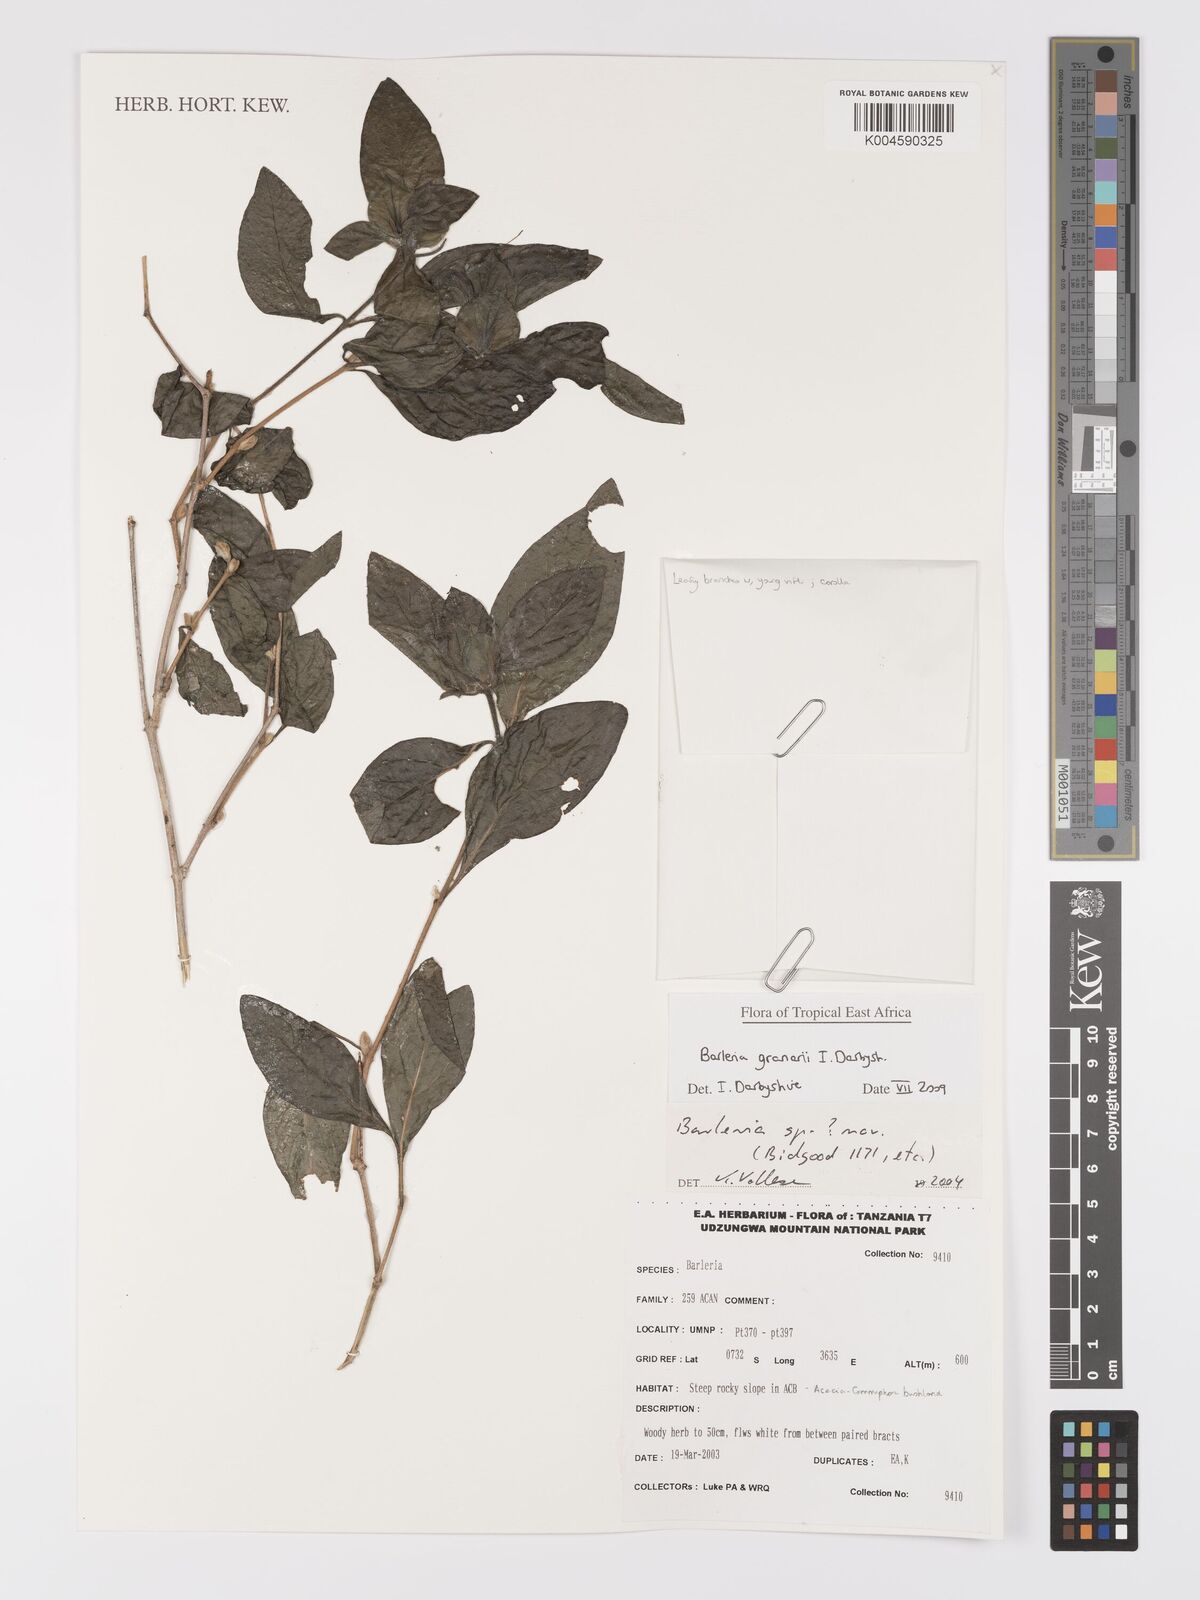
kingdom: Plantae
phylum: Tracheophyta
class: Magnoliopsida
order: Lamiales
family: Acanthaceae
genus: Barleria
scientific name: Barleria granarii
